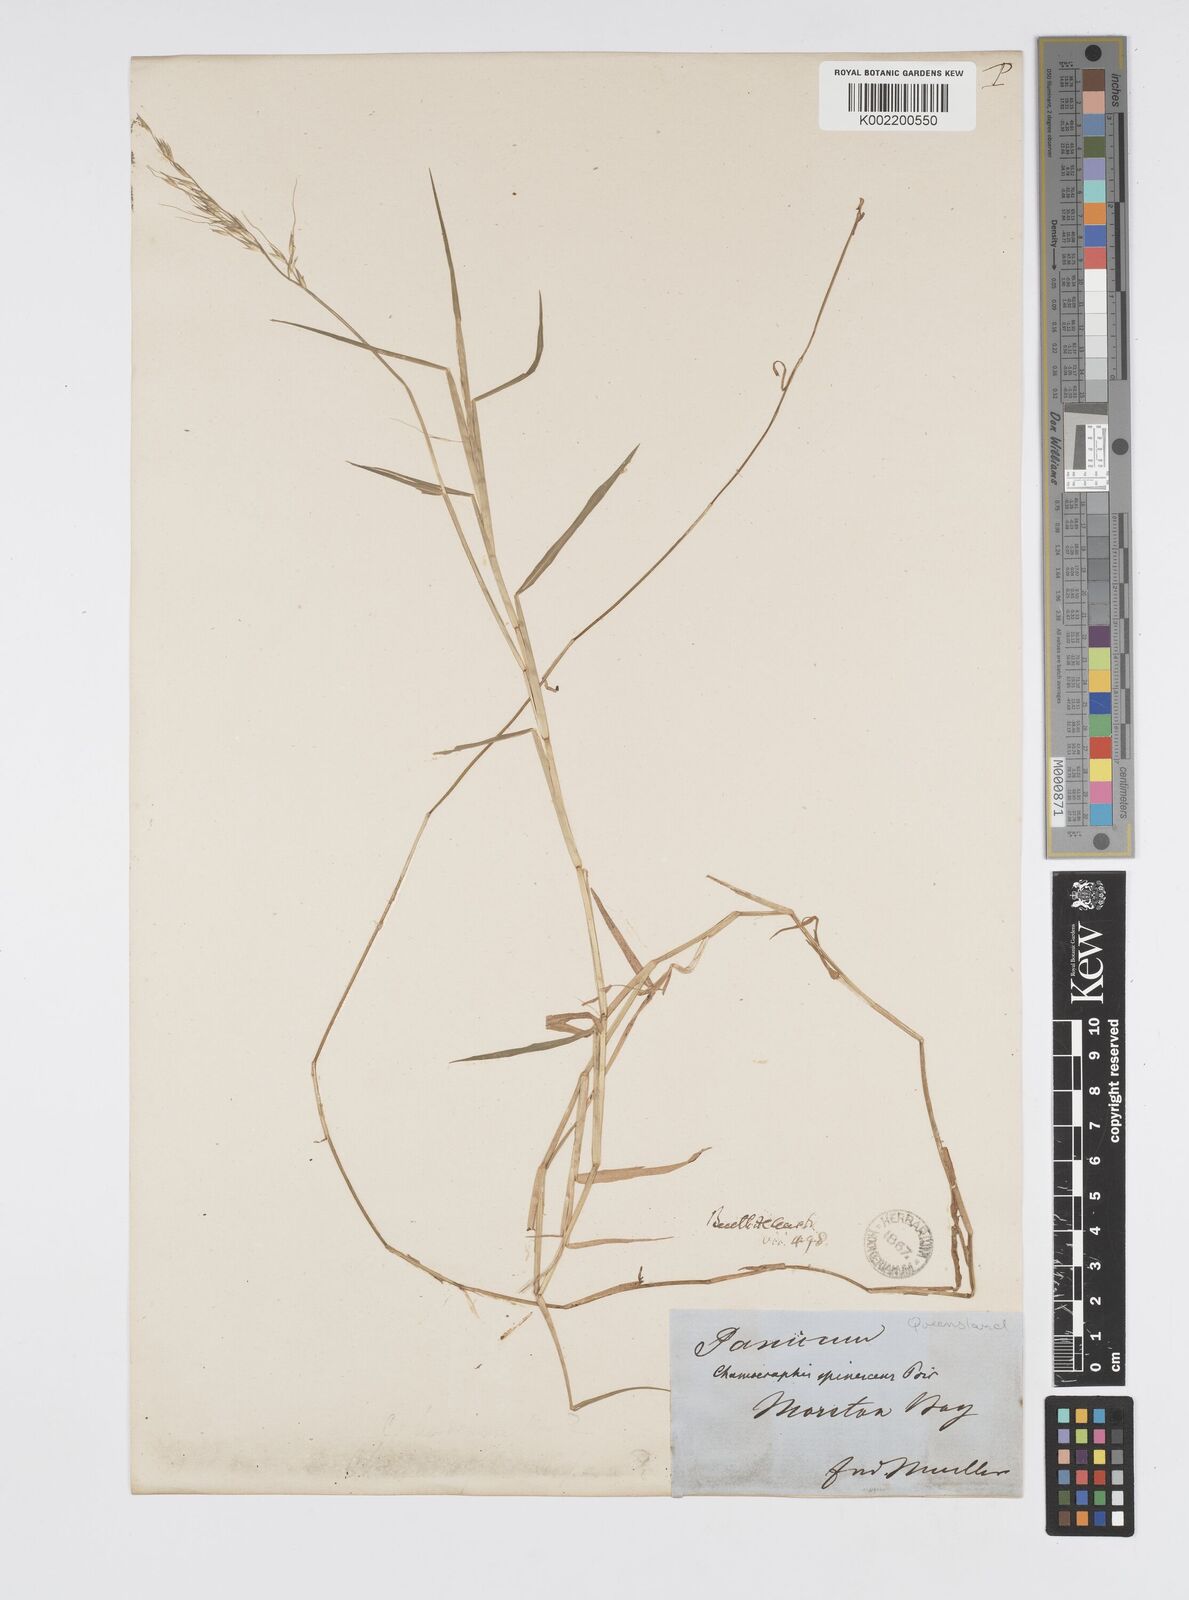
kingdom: Plantae
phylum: Tracheophyta
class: Liliopsida
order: Poales
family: Poaceae
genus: Pseudoraphis
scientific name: Pseudoraphis brunoniana
